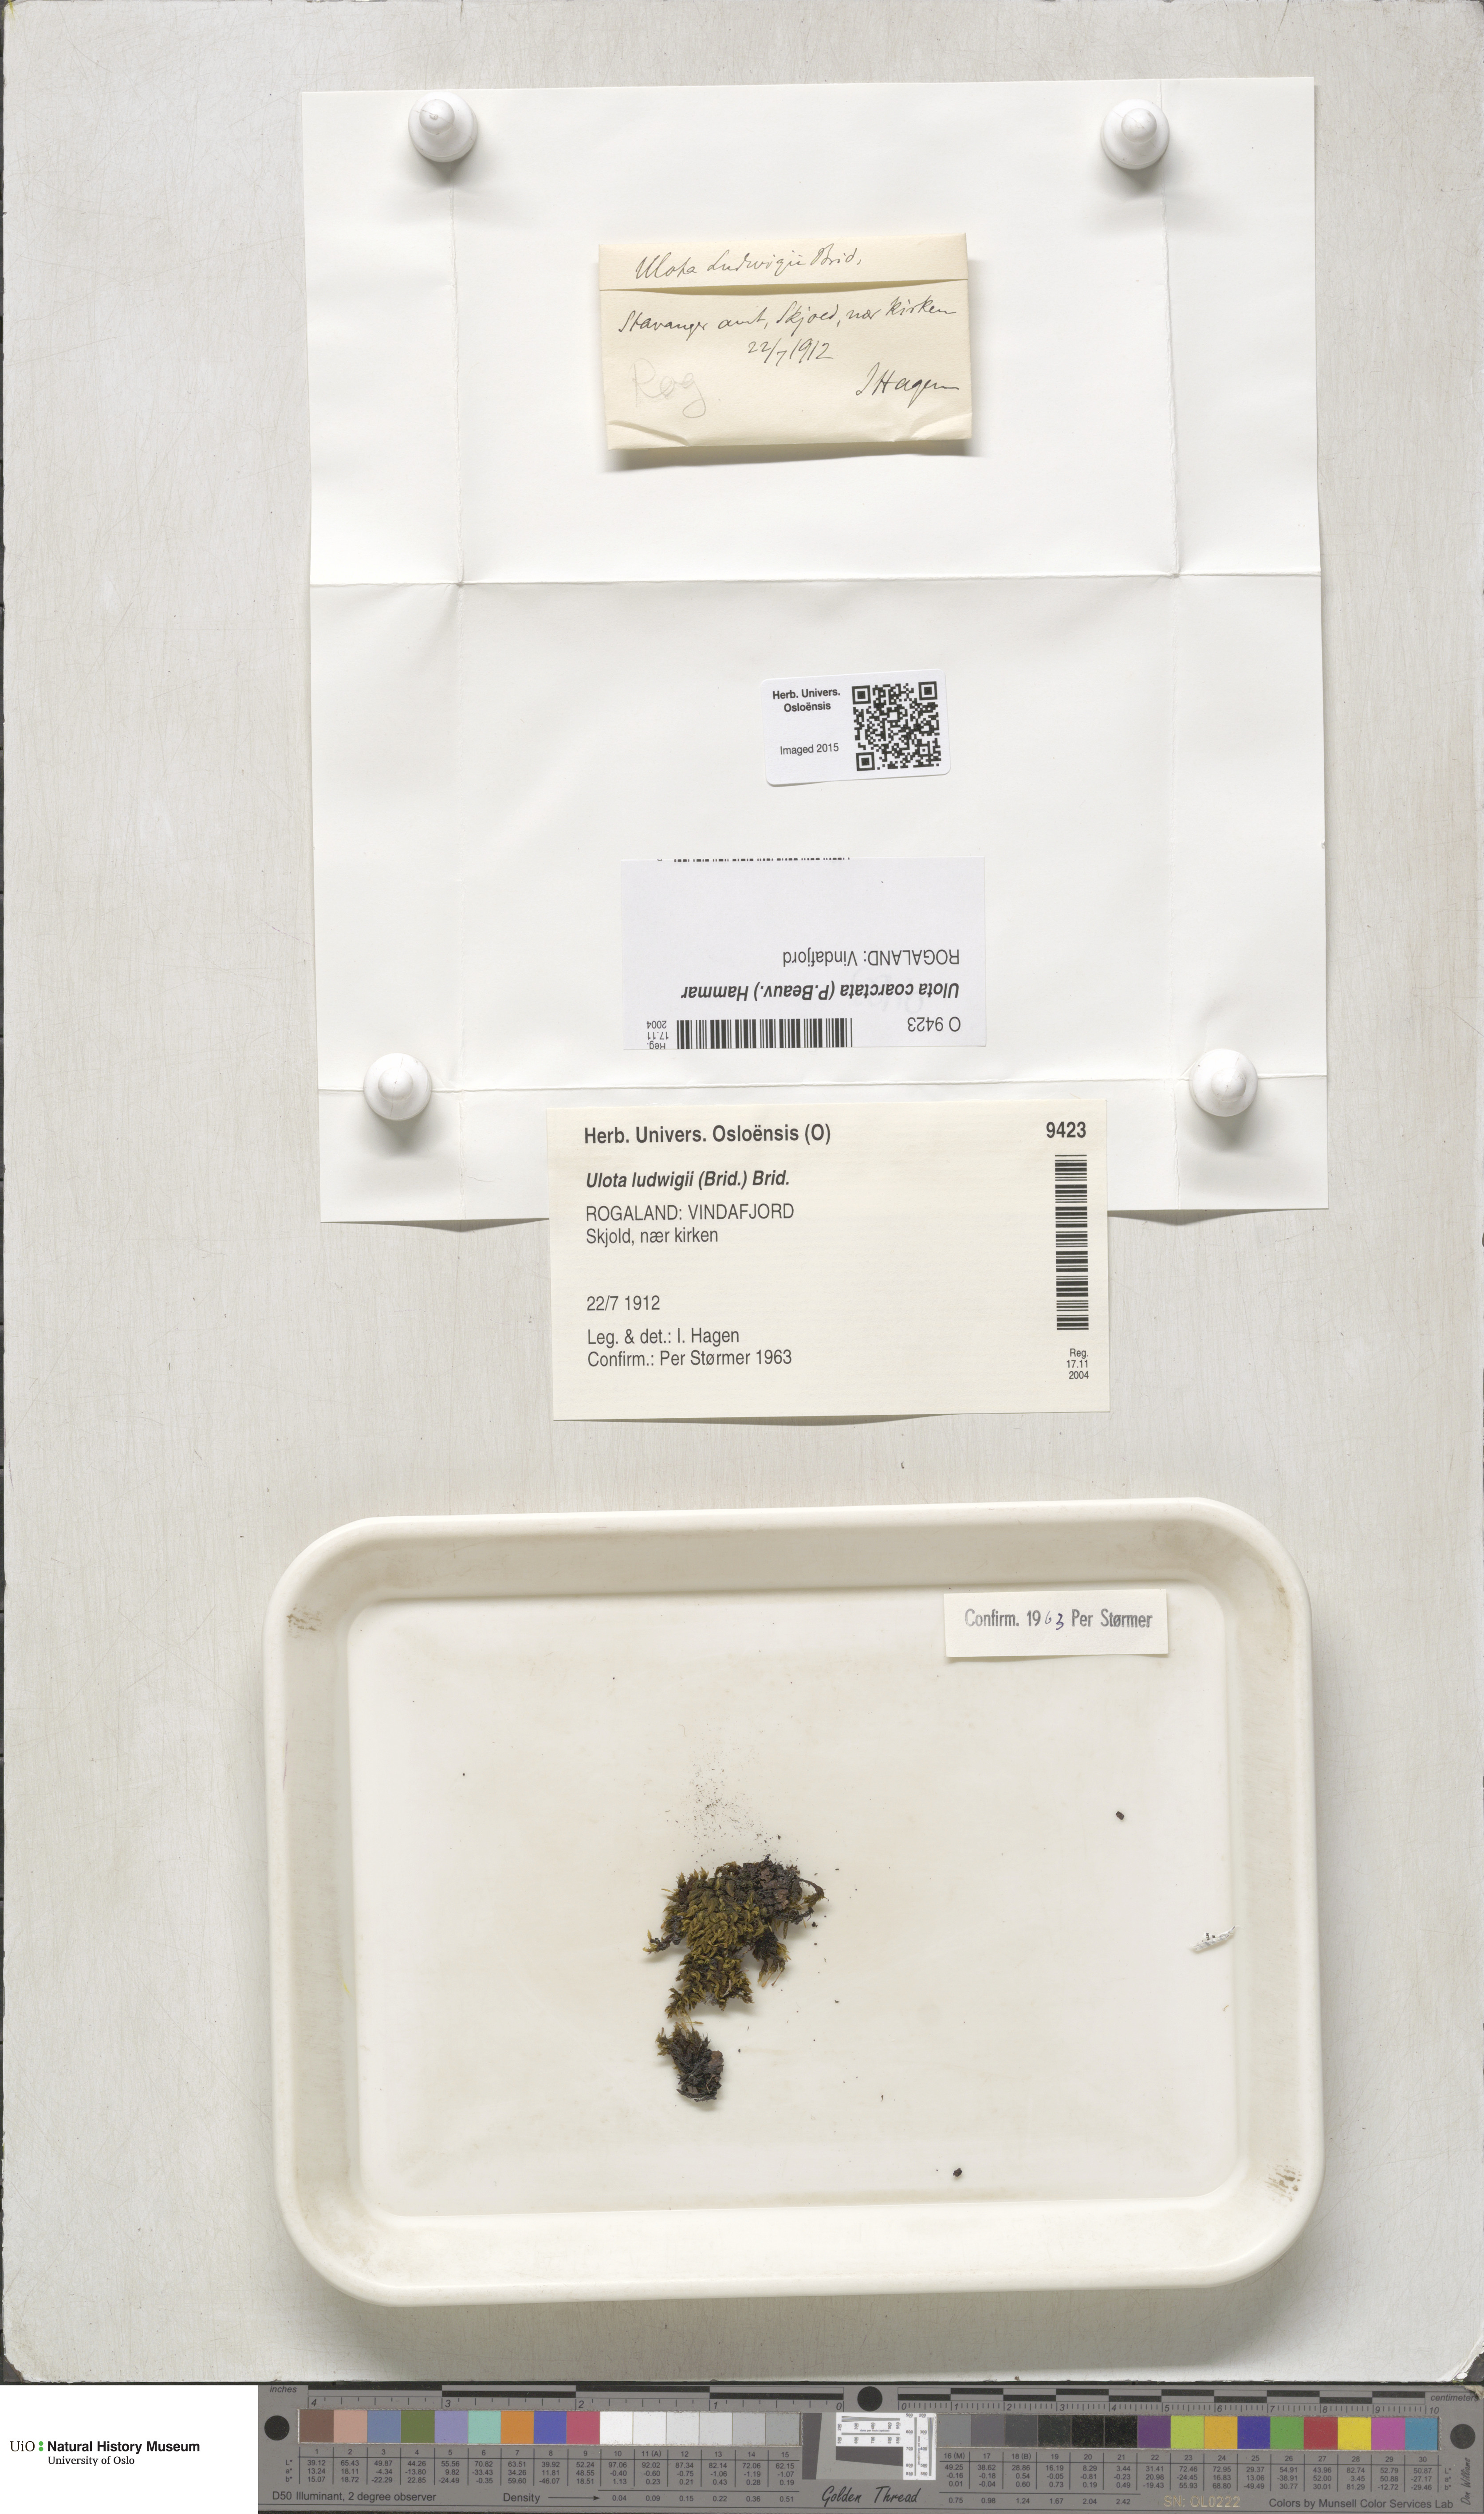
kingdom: Plantae
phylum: Bryophyta
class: Bryopsida
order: Orthotrichales
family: Orthotrichaceae
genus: Ulota
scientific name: Ulota coarctata
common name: Club pincushion moss
